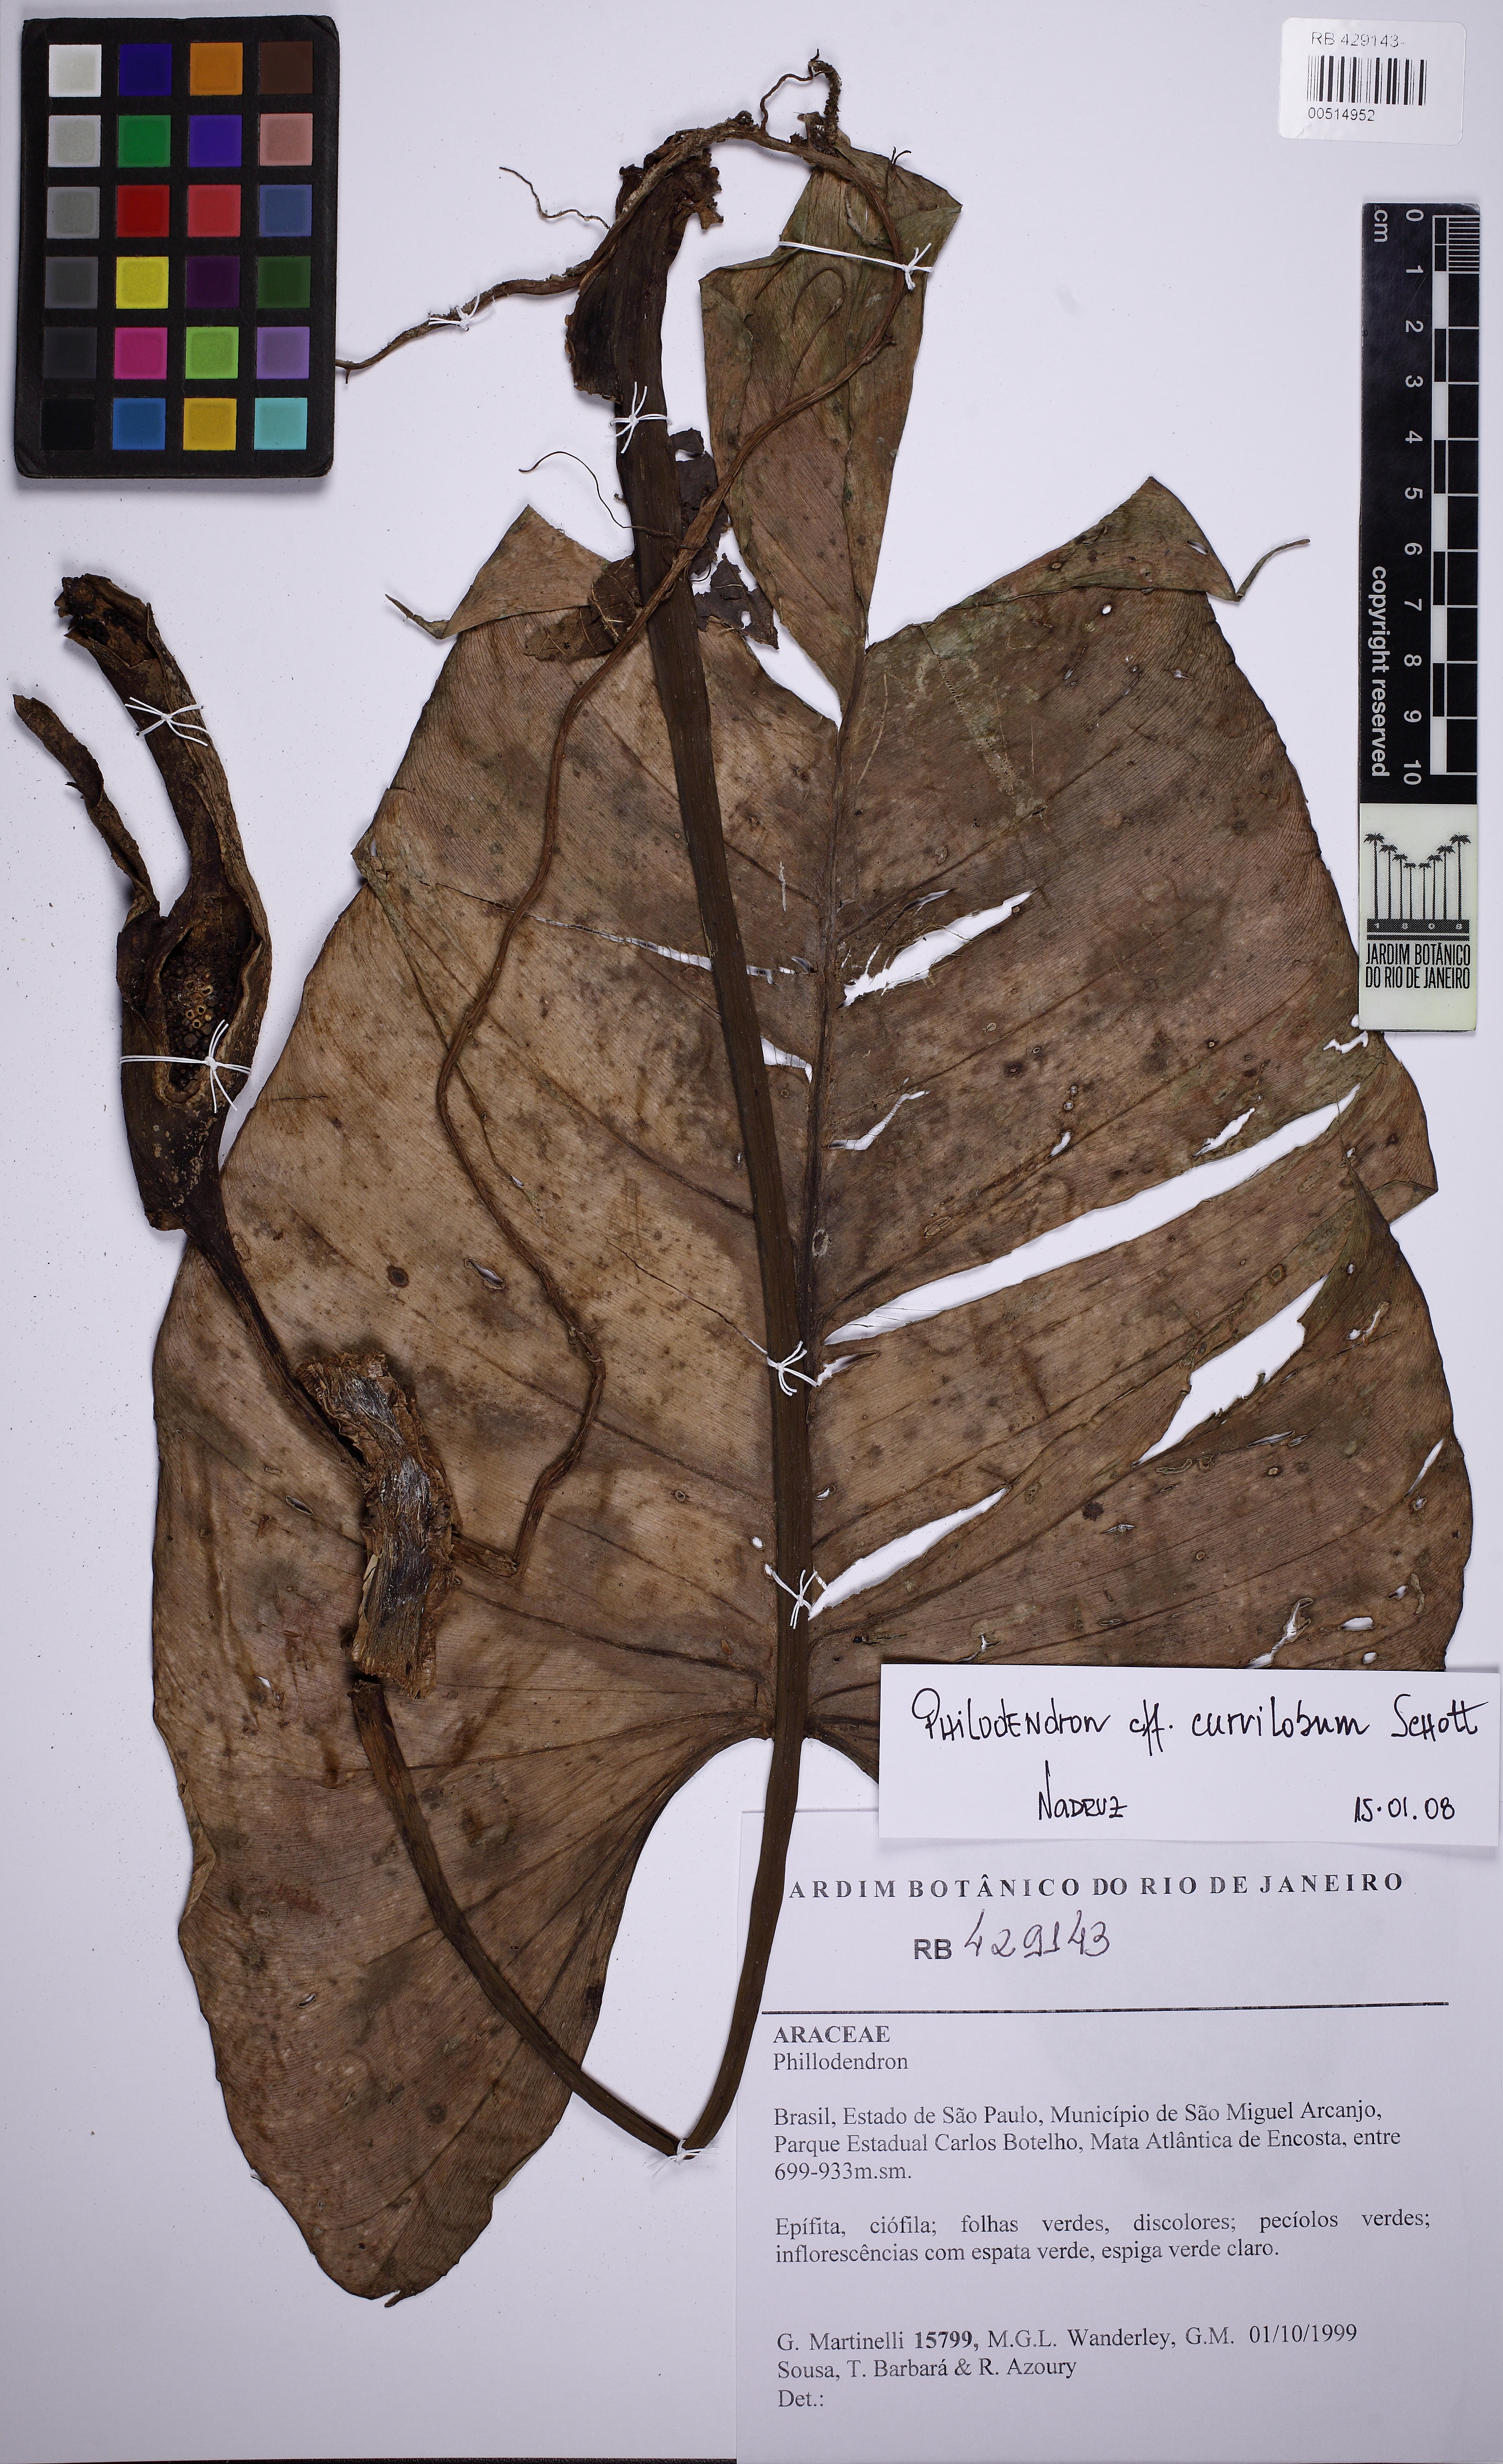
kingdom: Plantae
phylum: Tracheophyta
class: Liliopsida
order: Alismatales
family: Araceae
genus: Philodendron
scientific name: Philodendron curvilobum
